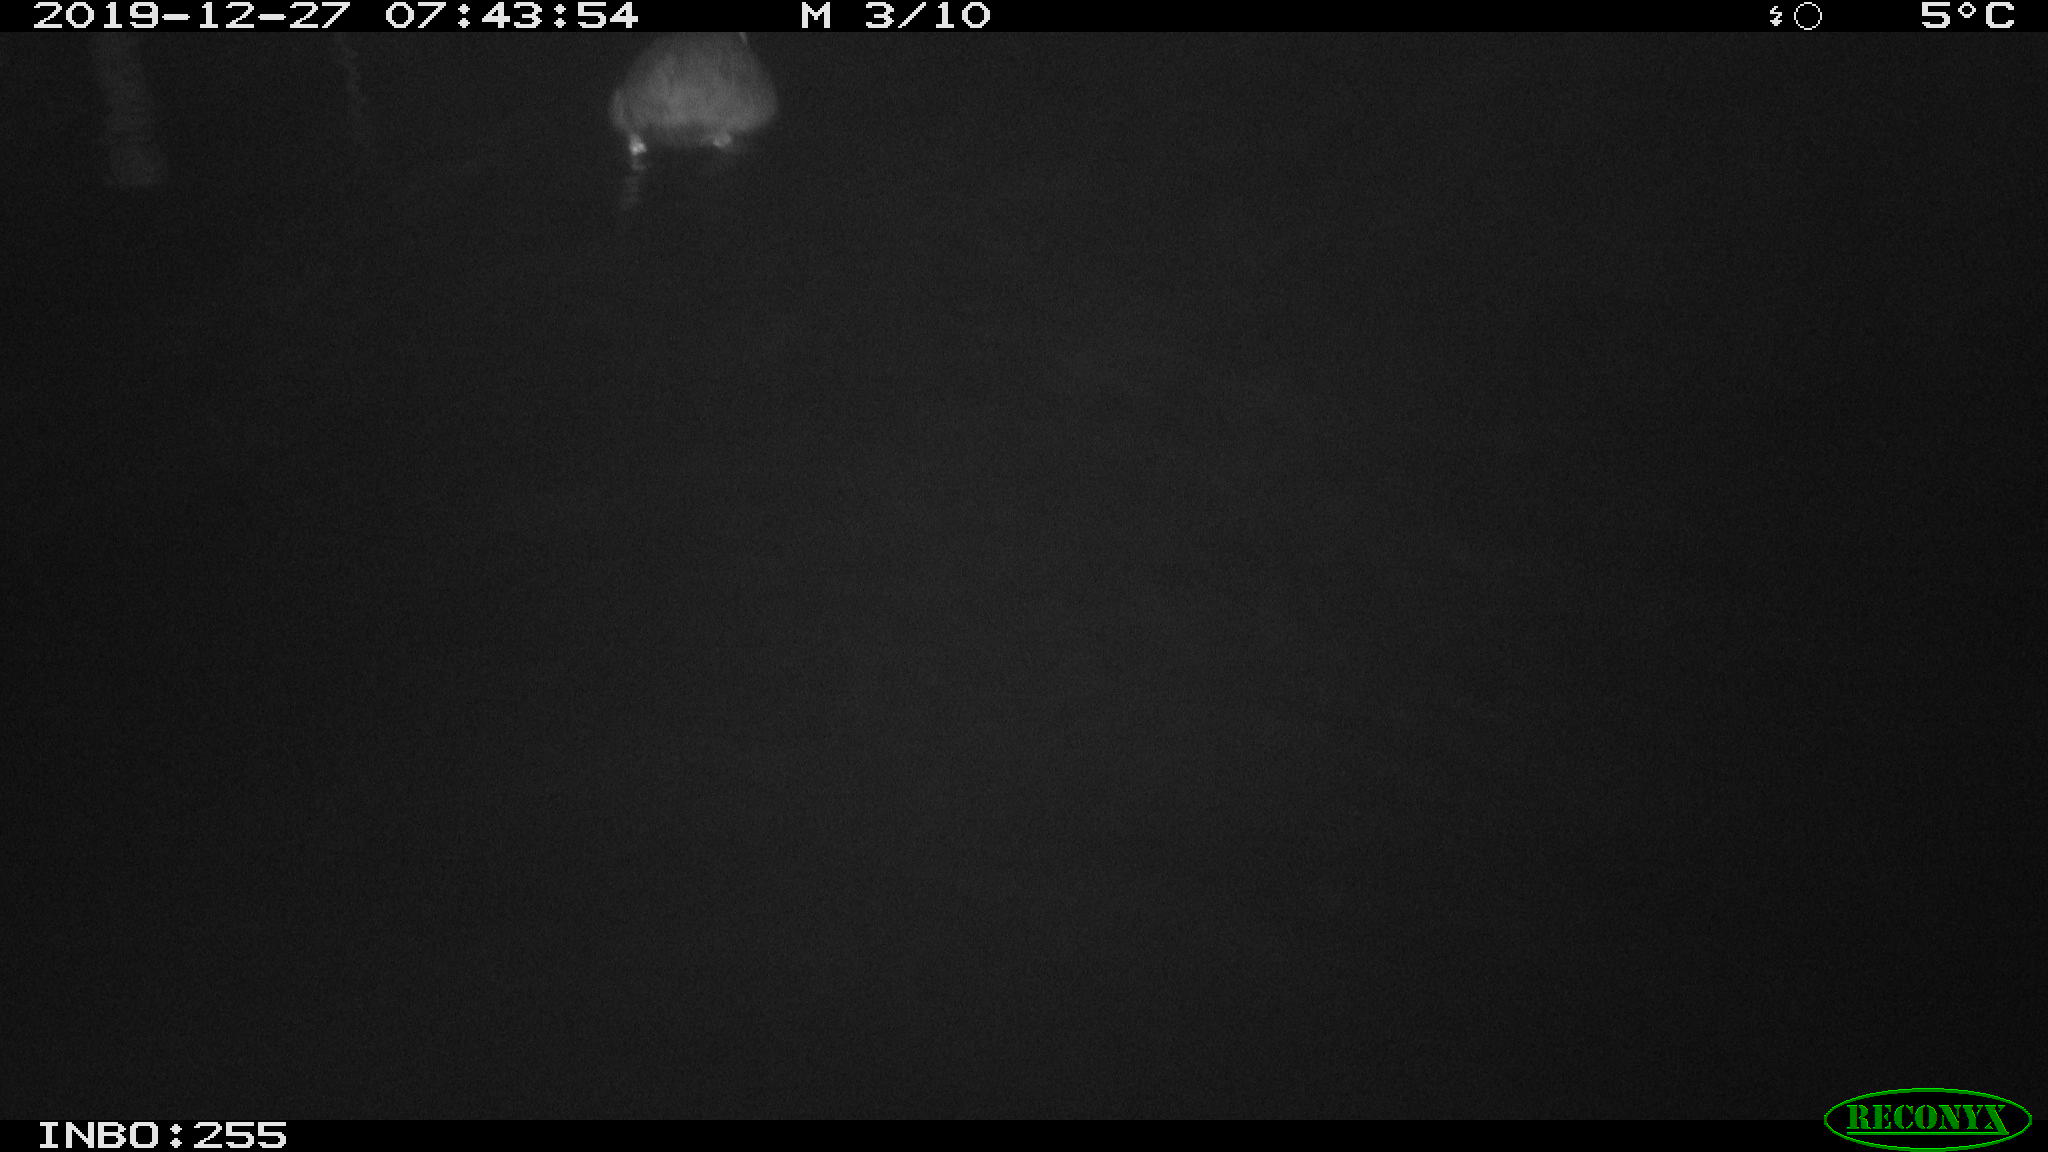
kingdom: Animalia
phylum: Chordata
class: Aves
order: Gruiformes
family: Rallidae
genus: Fulica
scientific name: Fulica atra
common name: Eurasian coot
